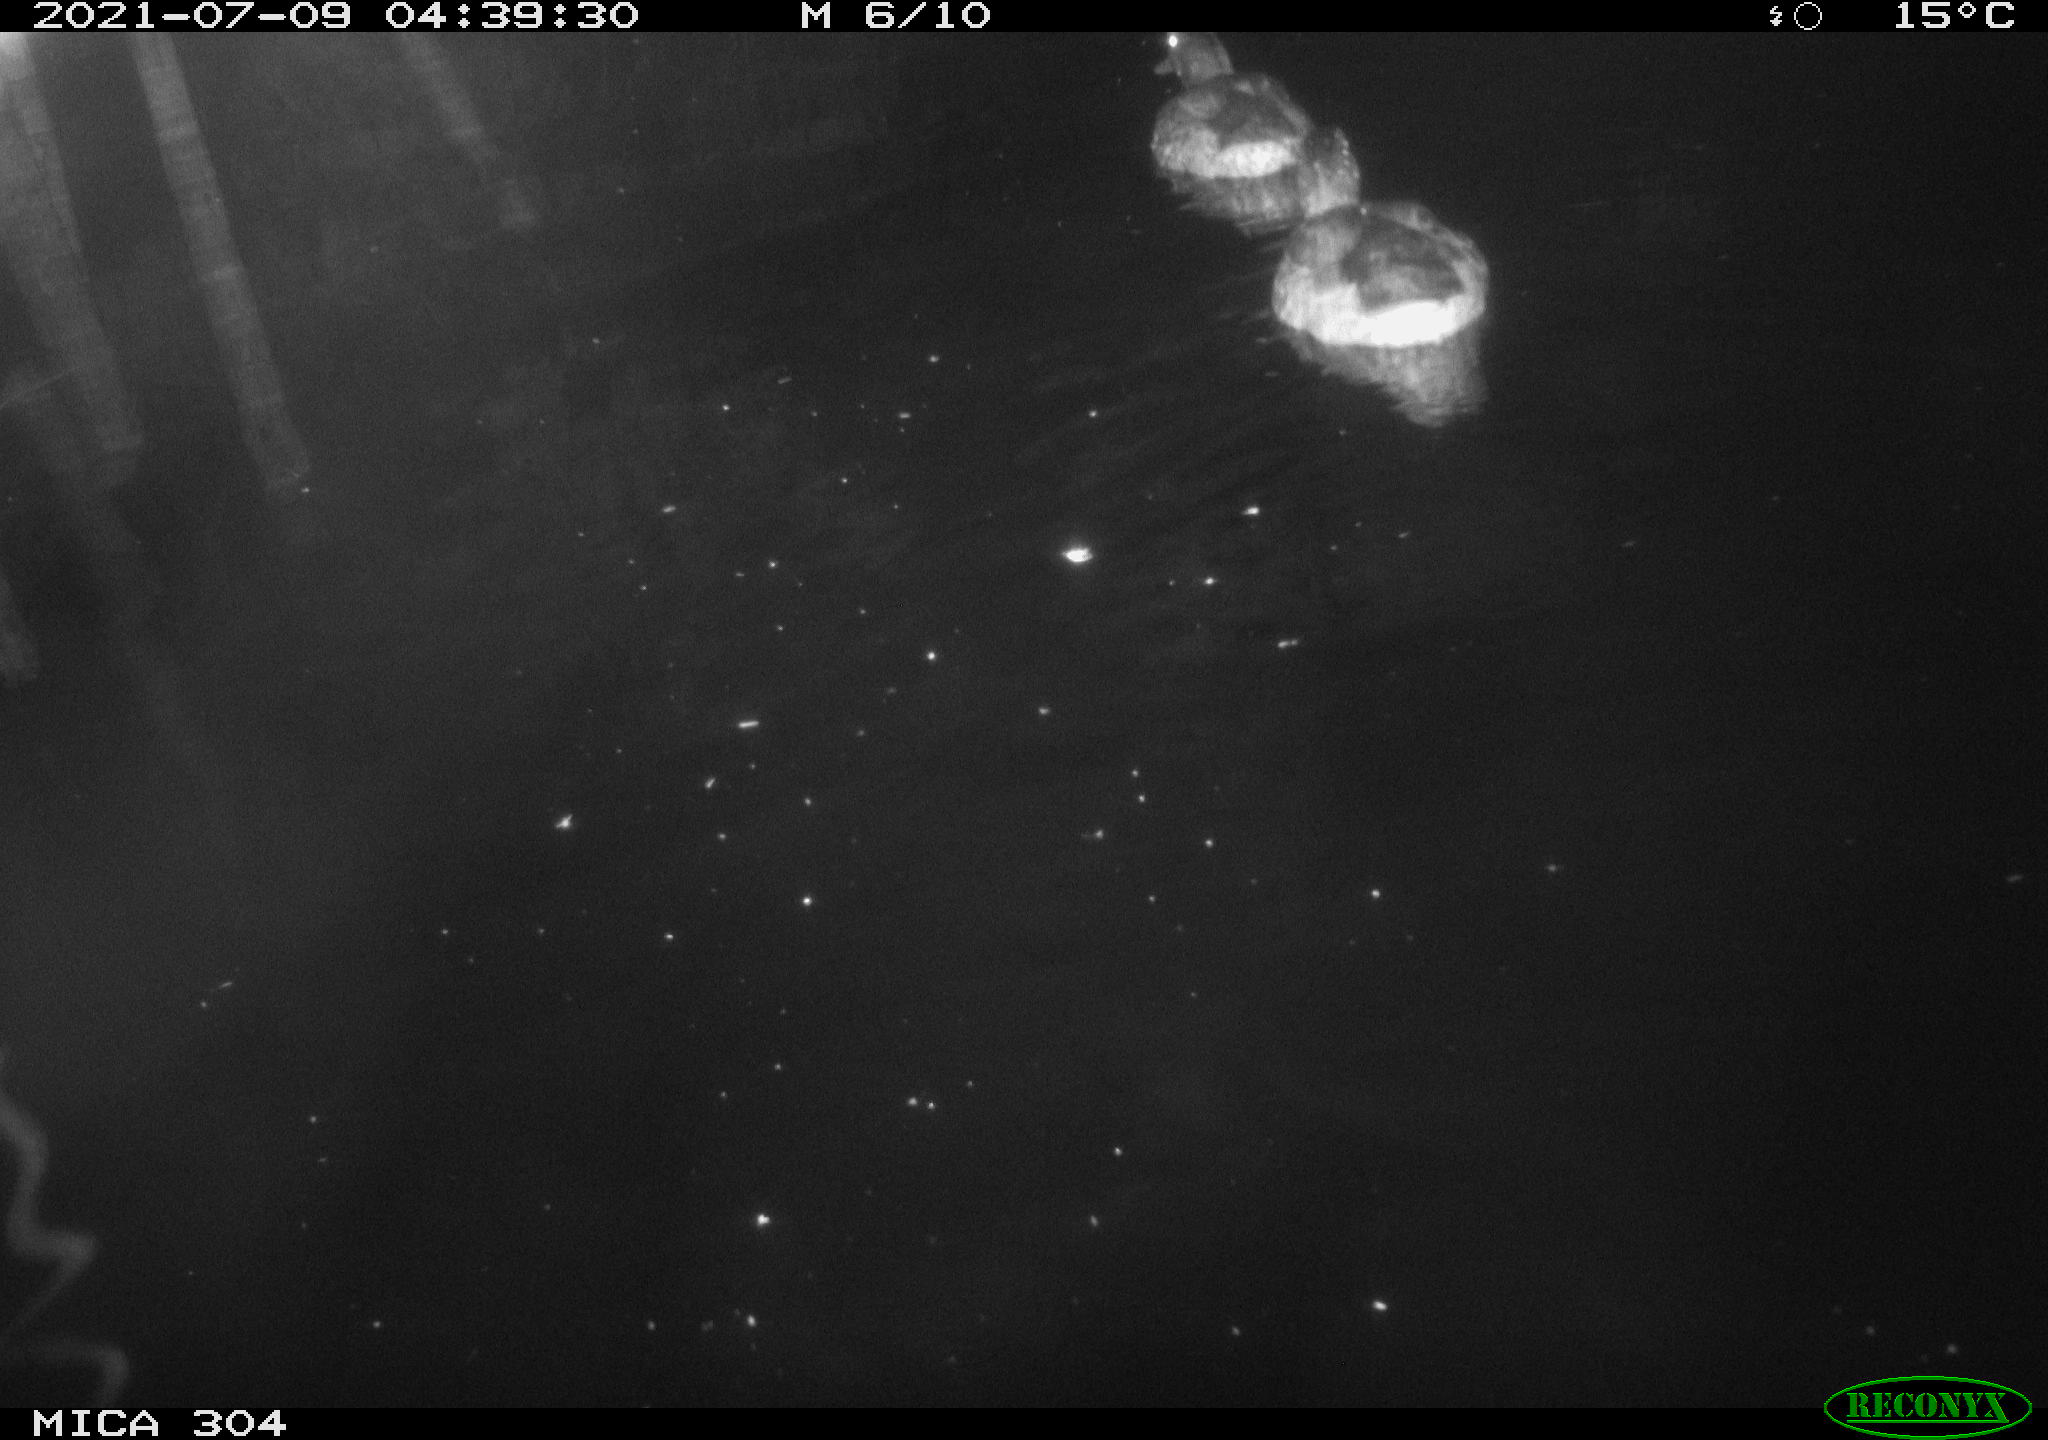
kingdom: Animalia
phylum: Chordata
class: Aves
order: Anseriformes
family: Anatidae
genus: Anas
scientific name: Anas platyrhynchos
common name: Mallard
